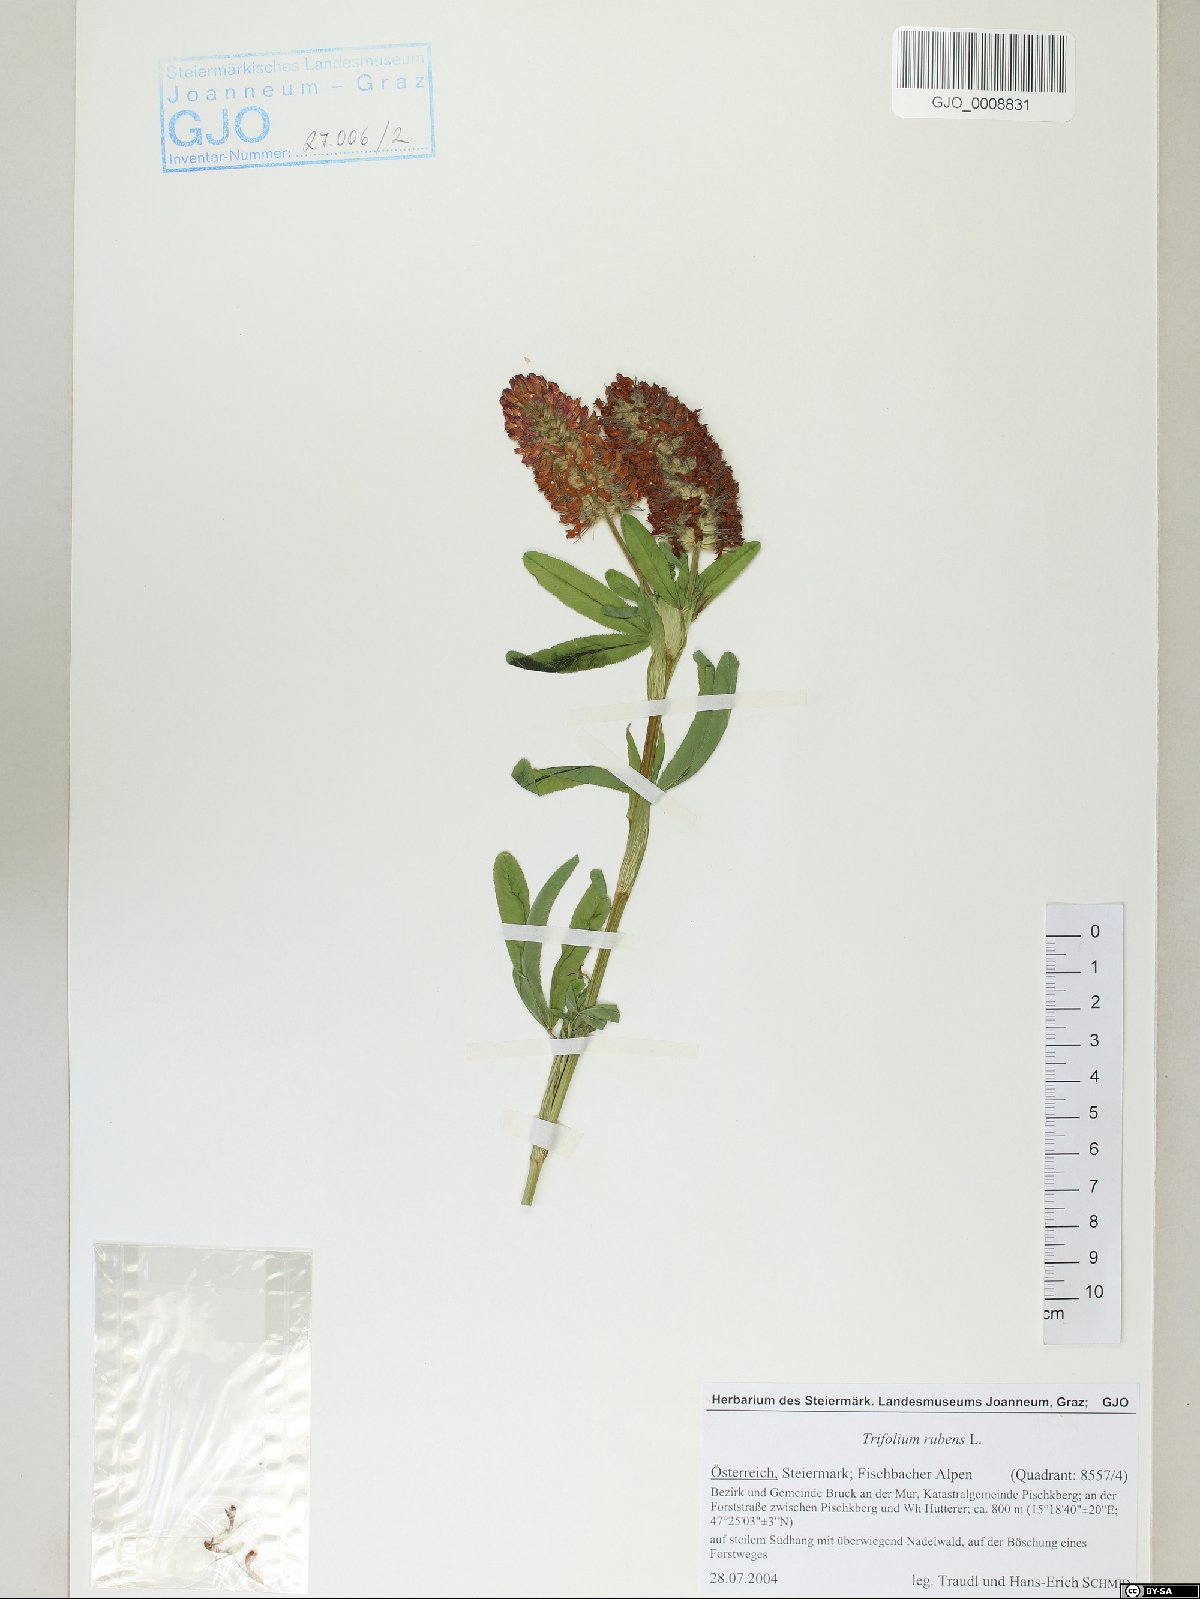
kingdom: Plantae
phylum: Tracheophyta
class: Magnoliopsida
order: Fabales
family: Fabaceae
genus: Trifolium
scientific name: Trifolium rubens
